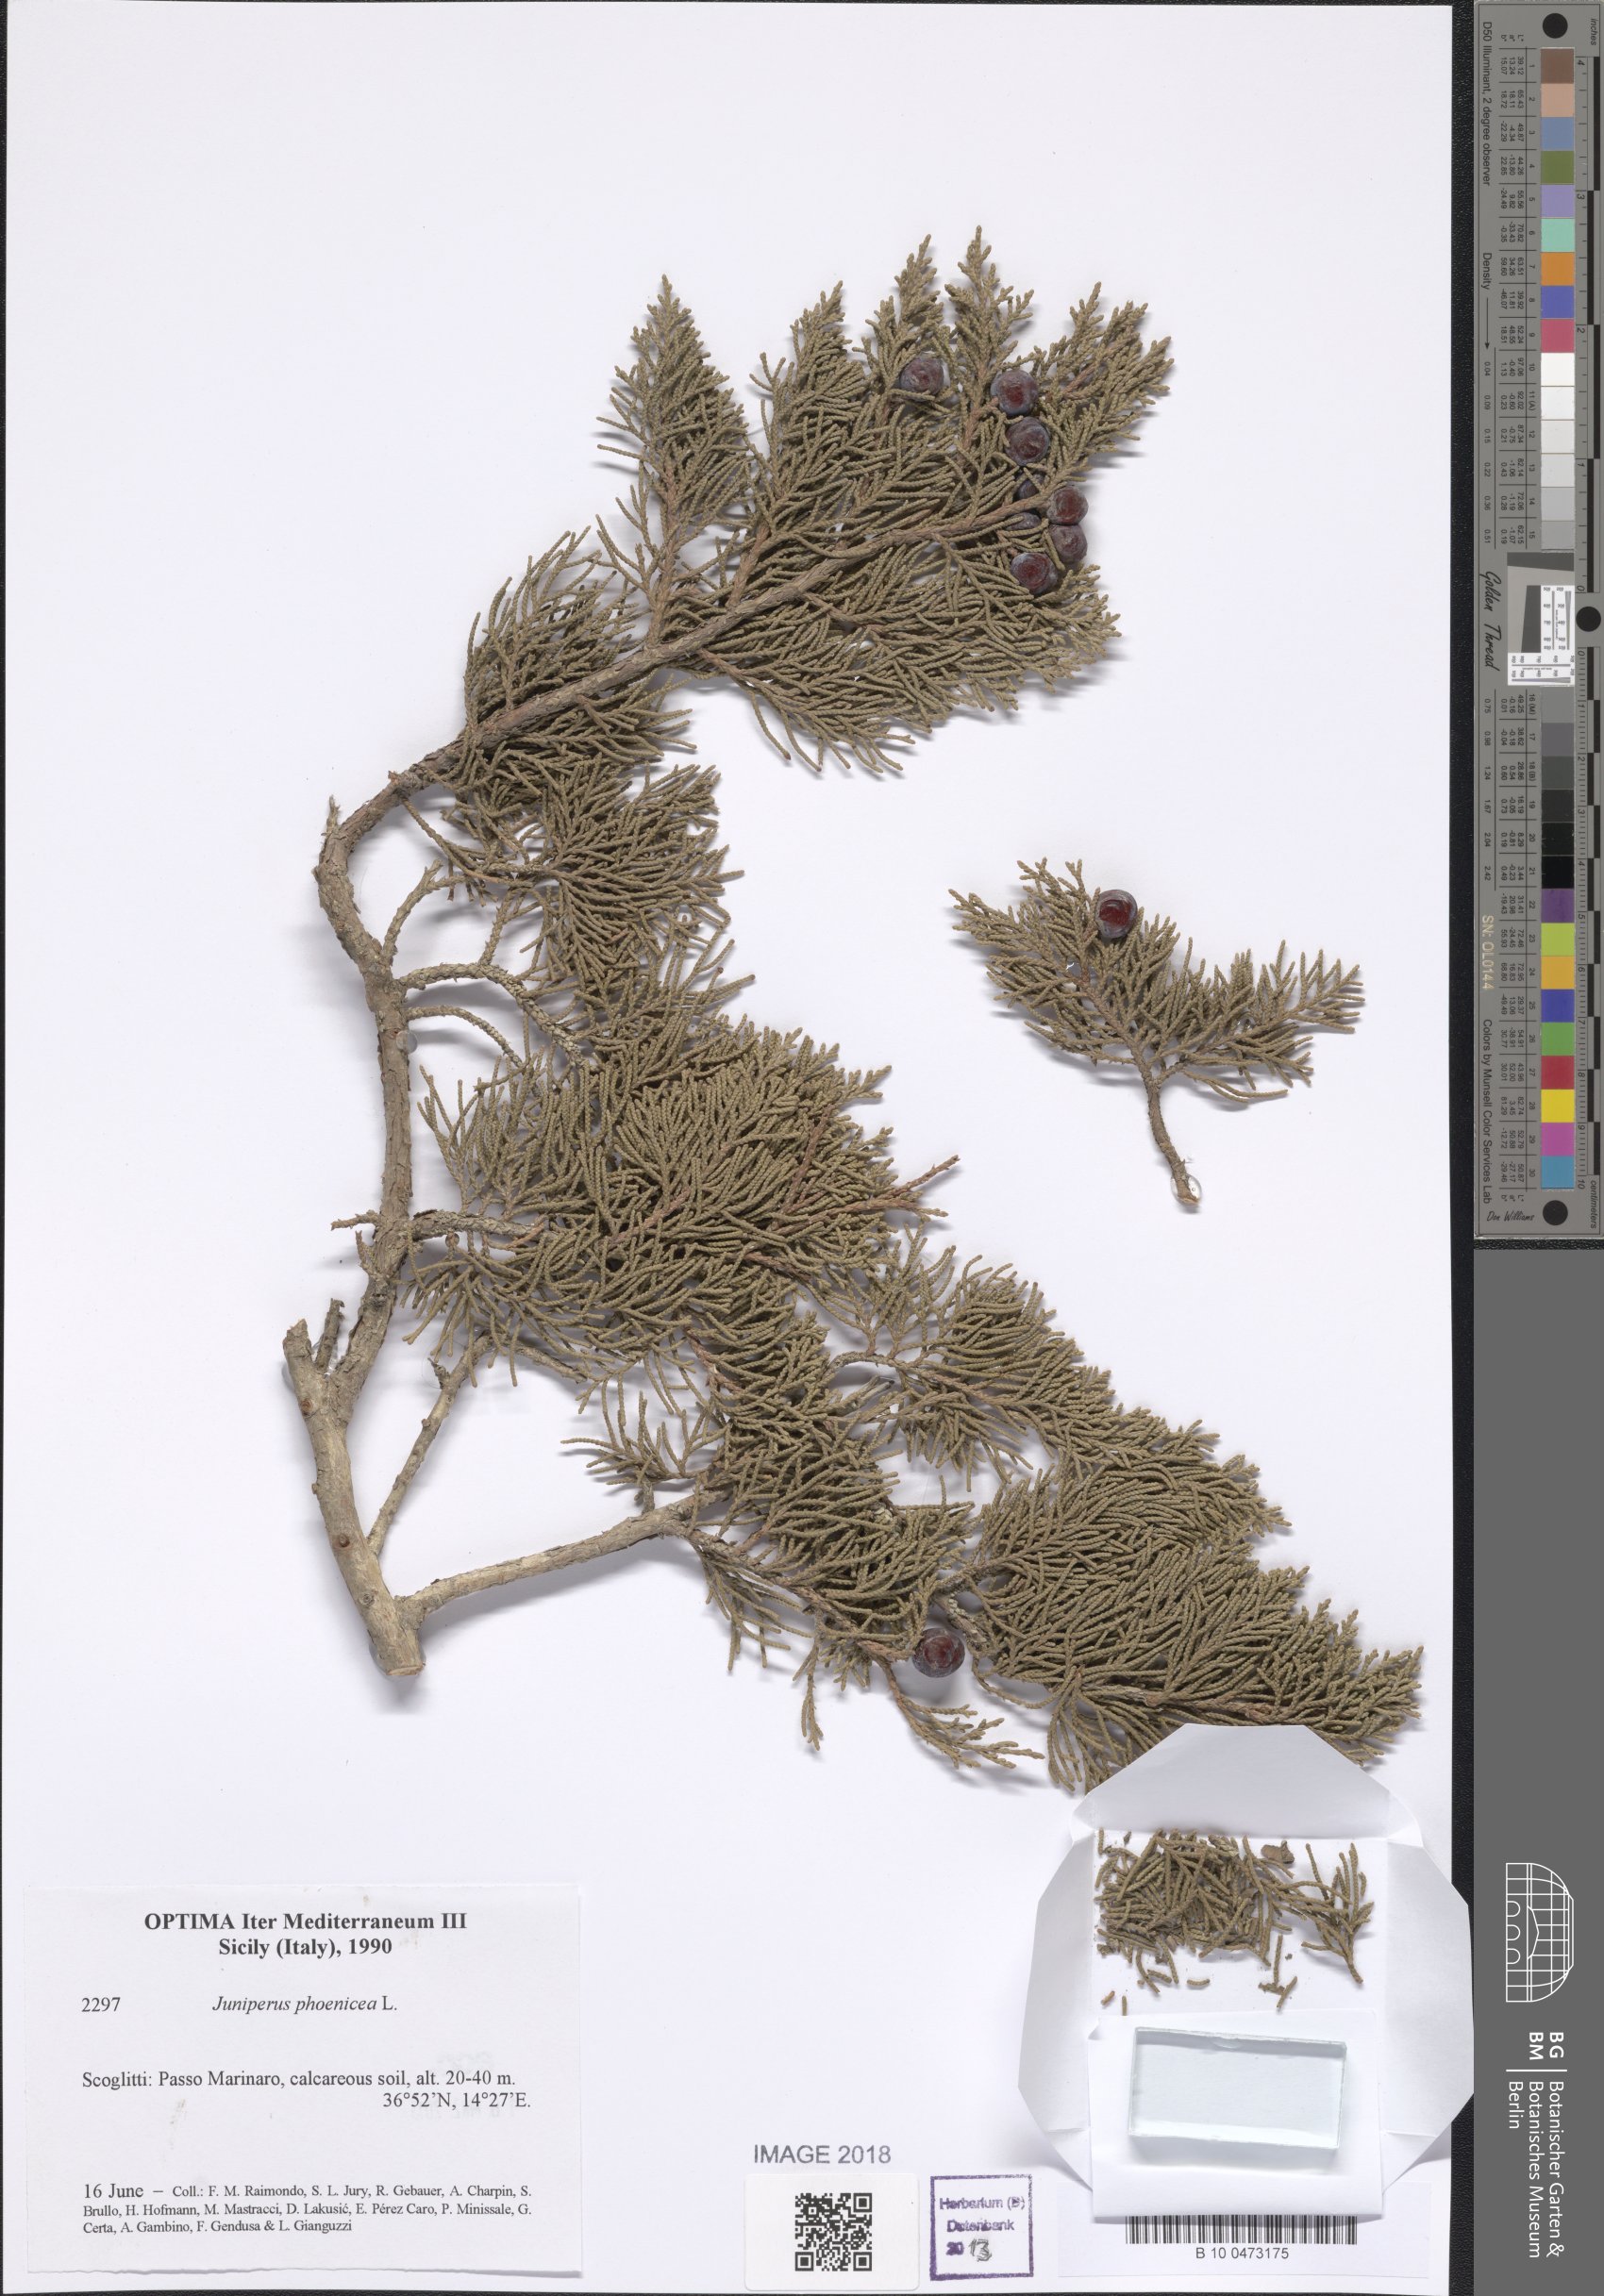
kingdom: Plantae
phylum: Tracheophyta
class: Pinopsida
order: Pinales
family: Cupressaceae
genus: Juniperus
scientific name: Juniperus phoenicea
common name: Phoenician juniper
